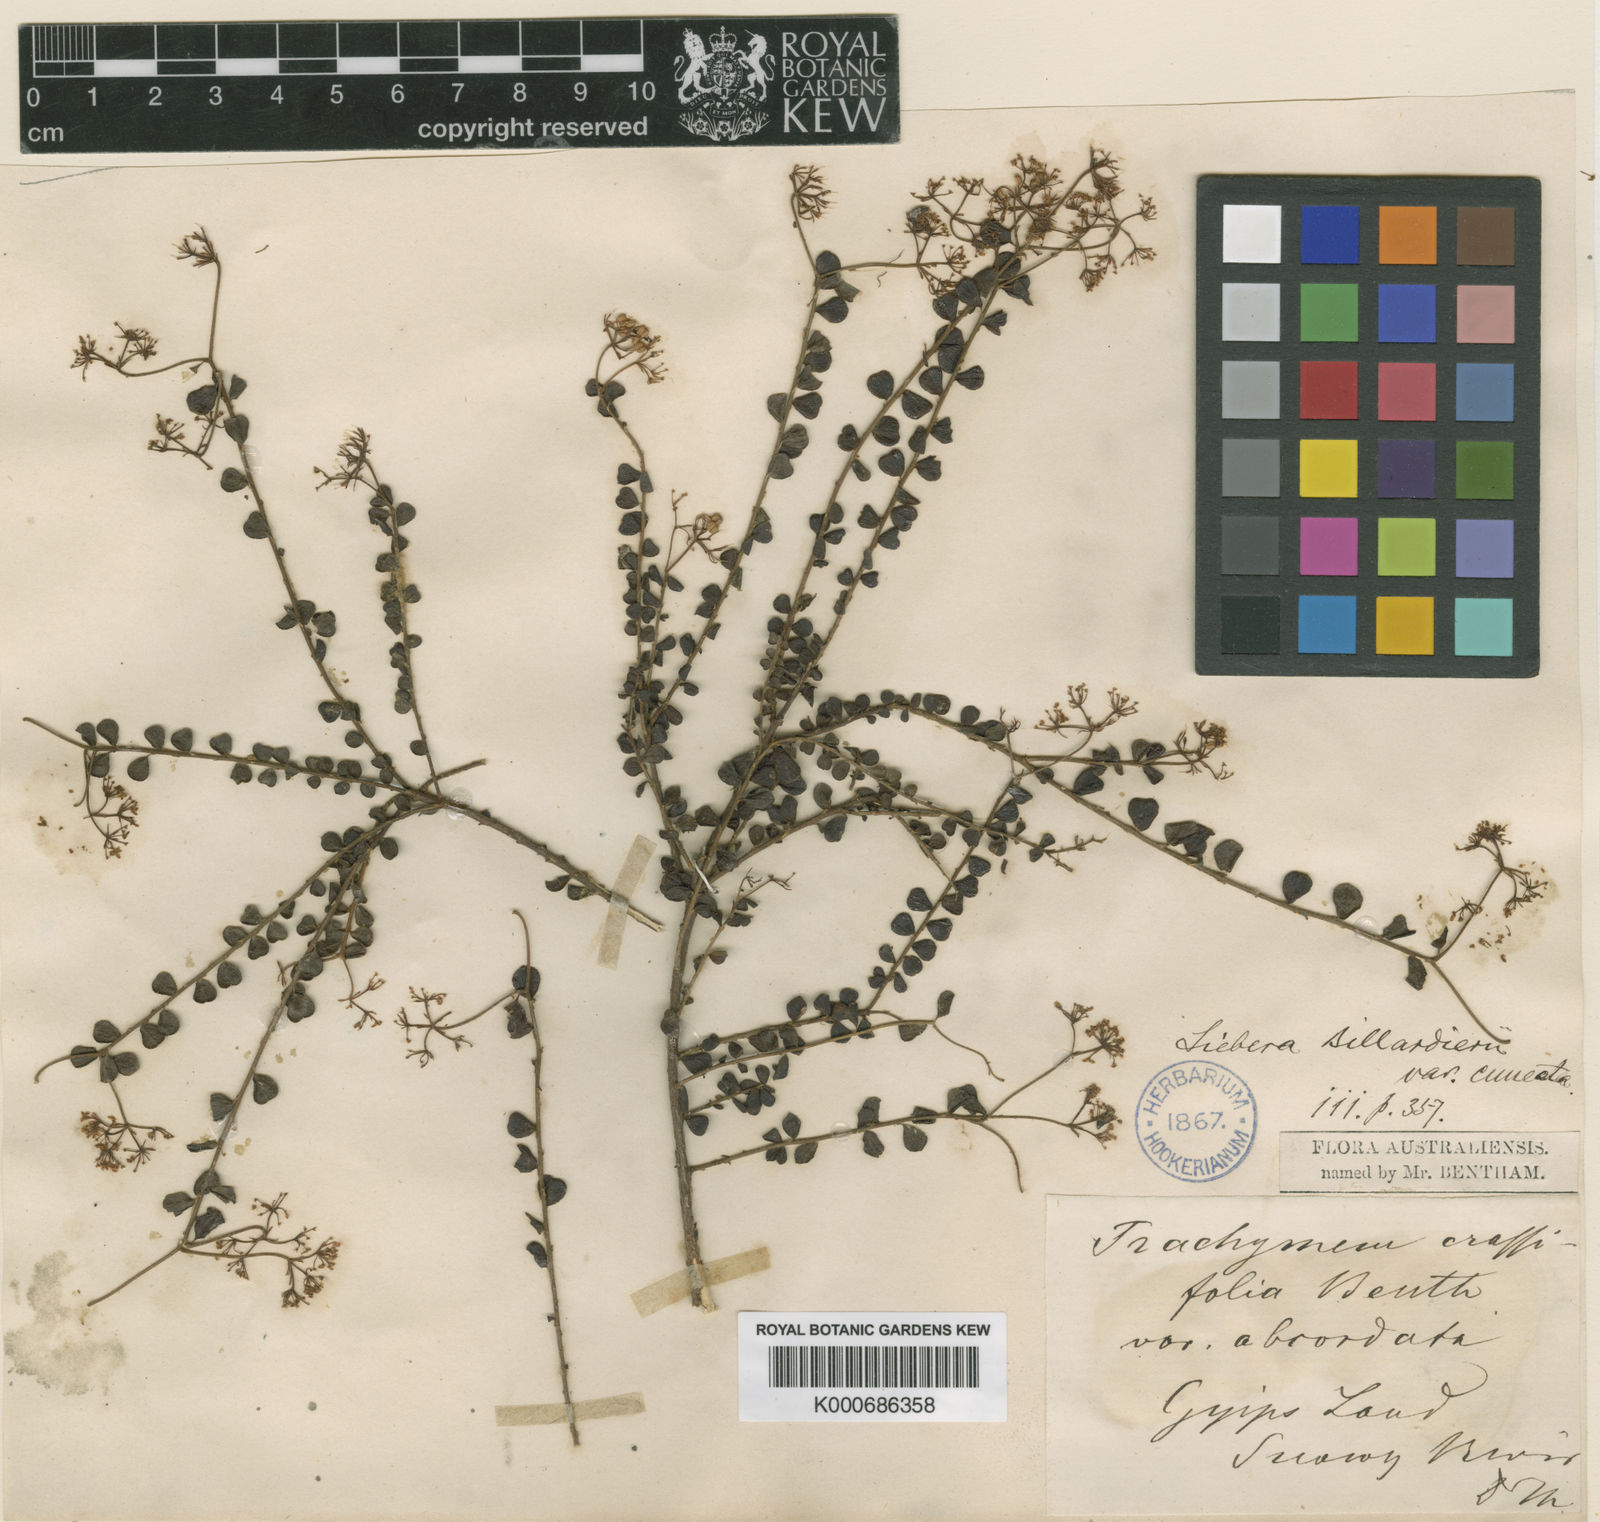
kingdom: Plantae
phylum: Tracheophyta
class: Magnoliopsida
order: Apiales
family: Apiaceae
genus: Platysace
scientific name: Platysace lanceolata
